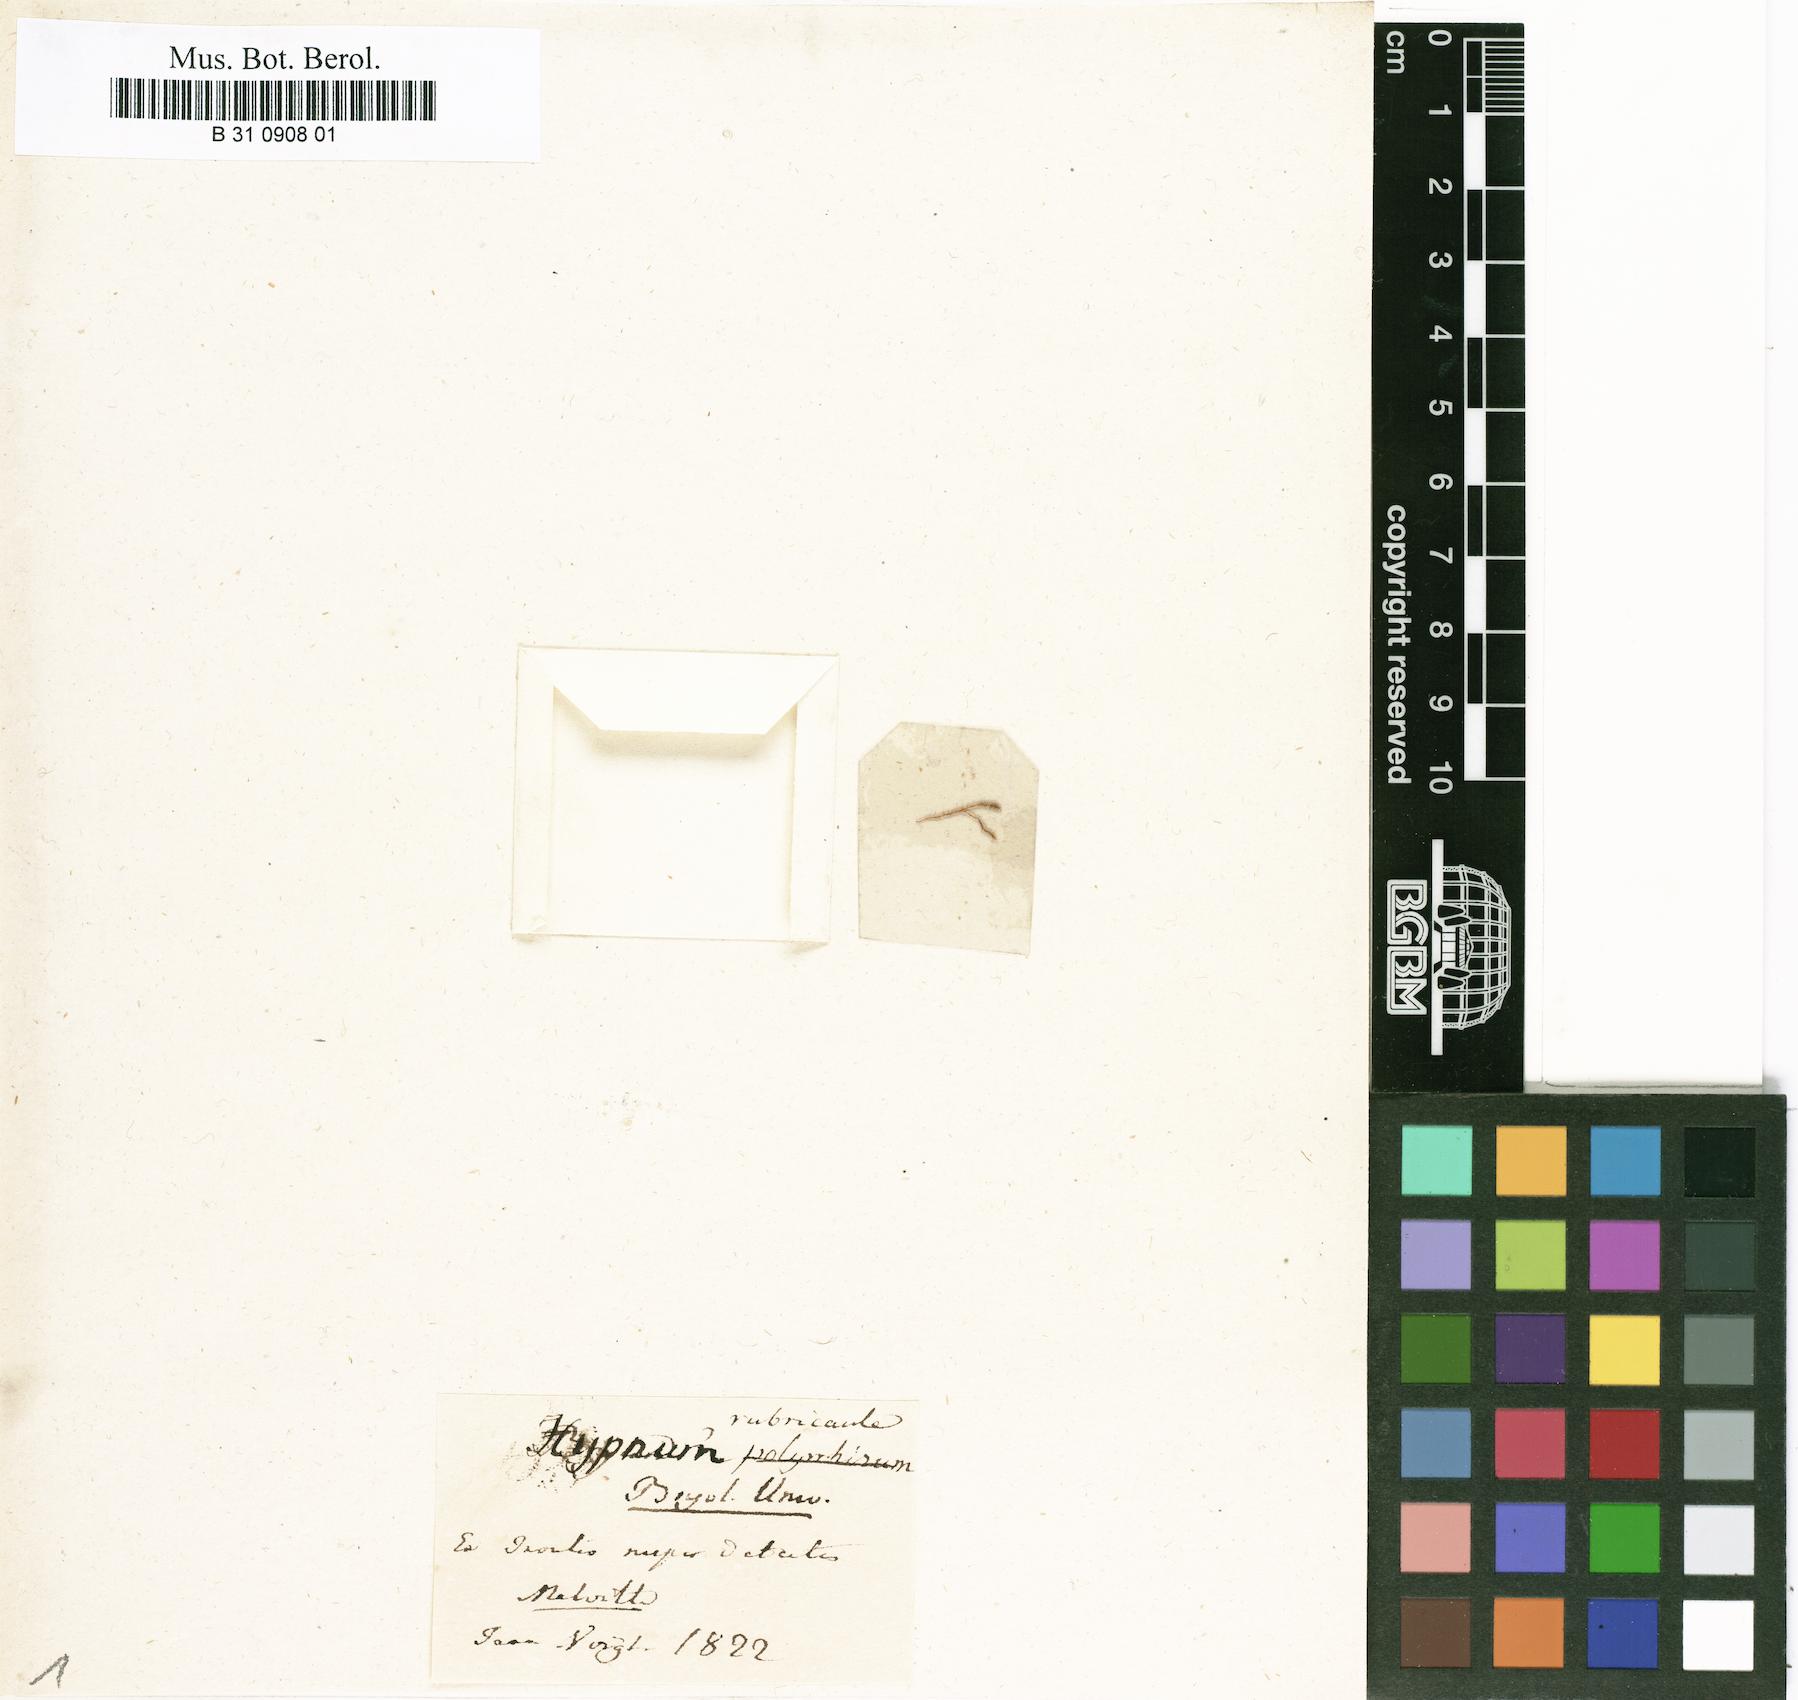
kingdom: Plantae
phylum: Bryophyta
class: Bryopsida
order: Hypnales
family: Hypnaceae
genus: Hypnum
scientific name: Hypnum rubricaule
